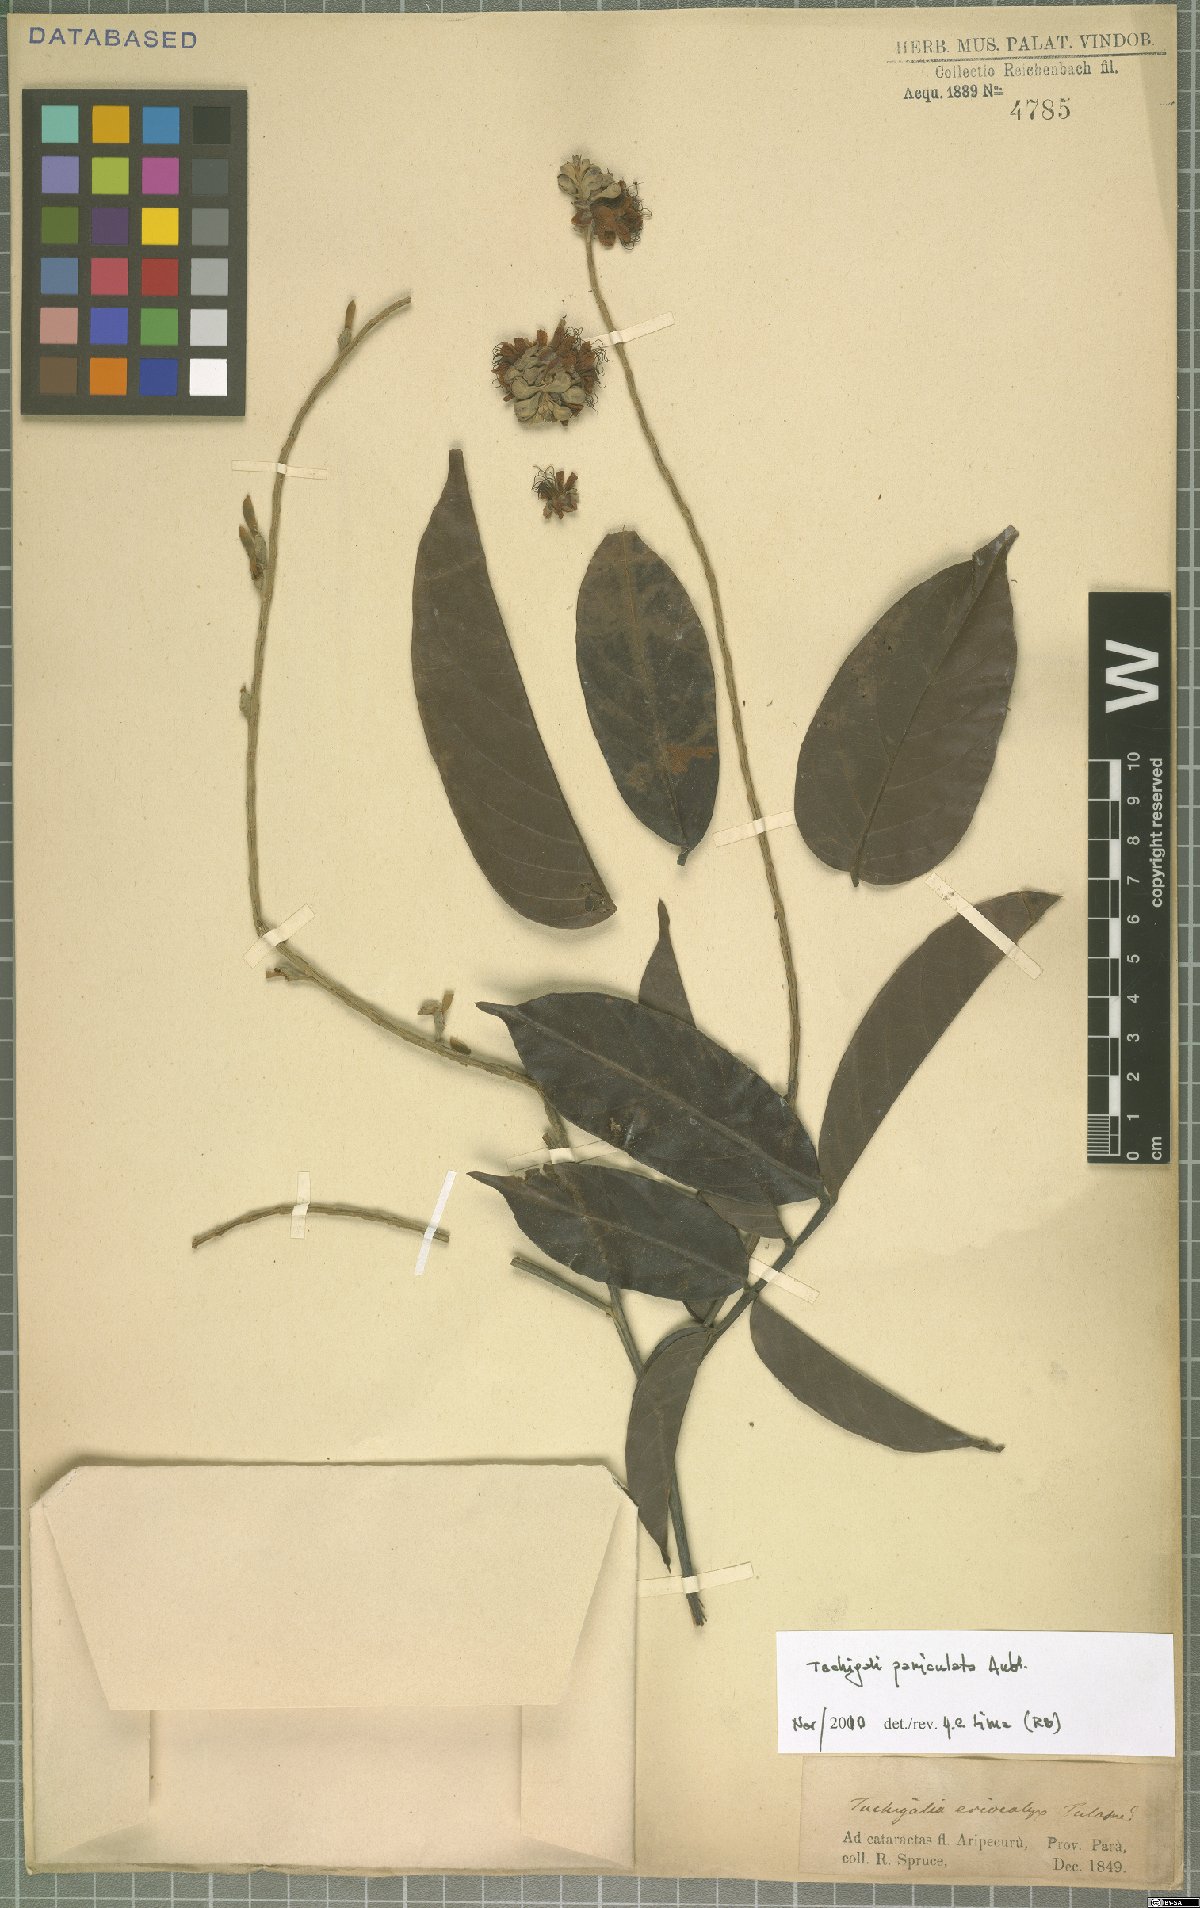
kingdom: Plantae
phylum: Tracheophyta
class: Magnoliopsida
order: Fabales
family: Fabaceae
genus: Tachigali
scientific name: Tachigali paniculata
